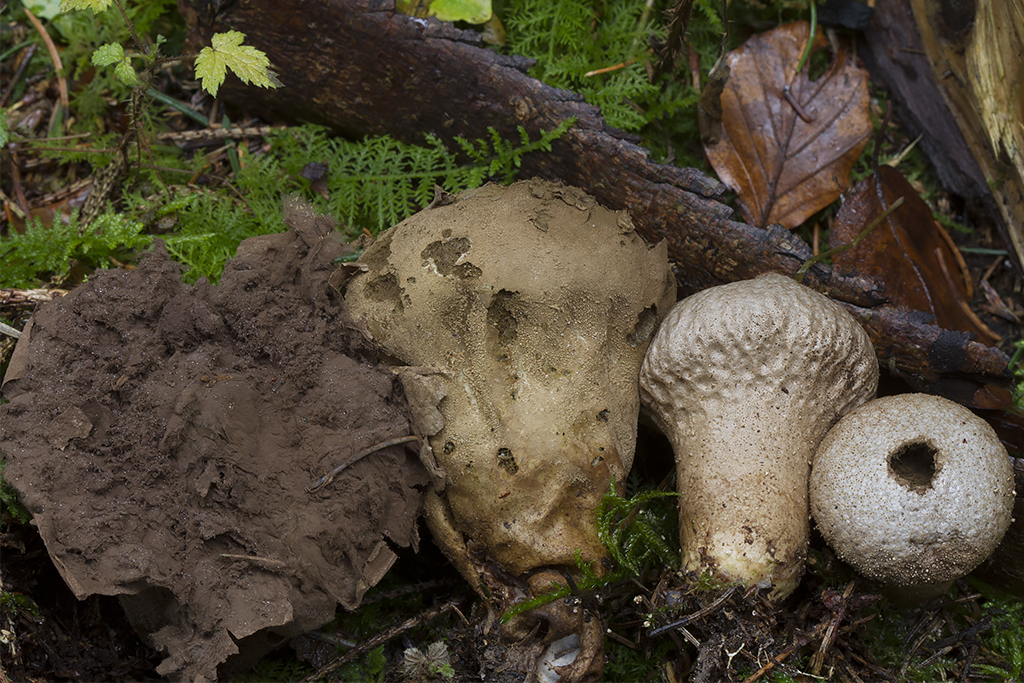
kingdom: Fungi
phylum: Basidiomycota
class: Agaricomycetes
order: Agaricales
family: Lycoperdaceae
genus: Lycoperdon
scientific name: Lycoperdon excipuliforme
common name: højstokket støvbold
